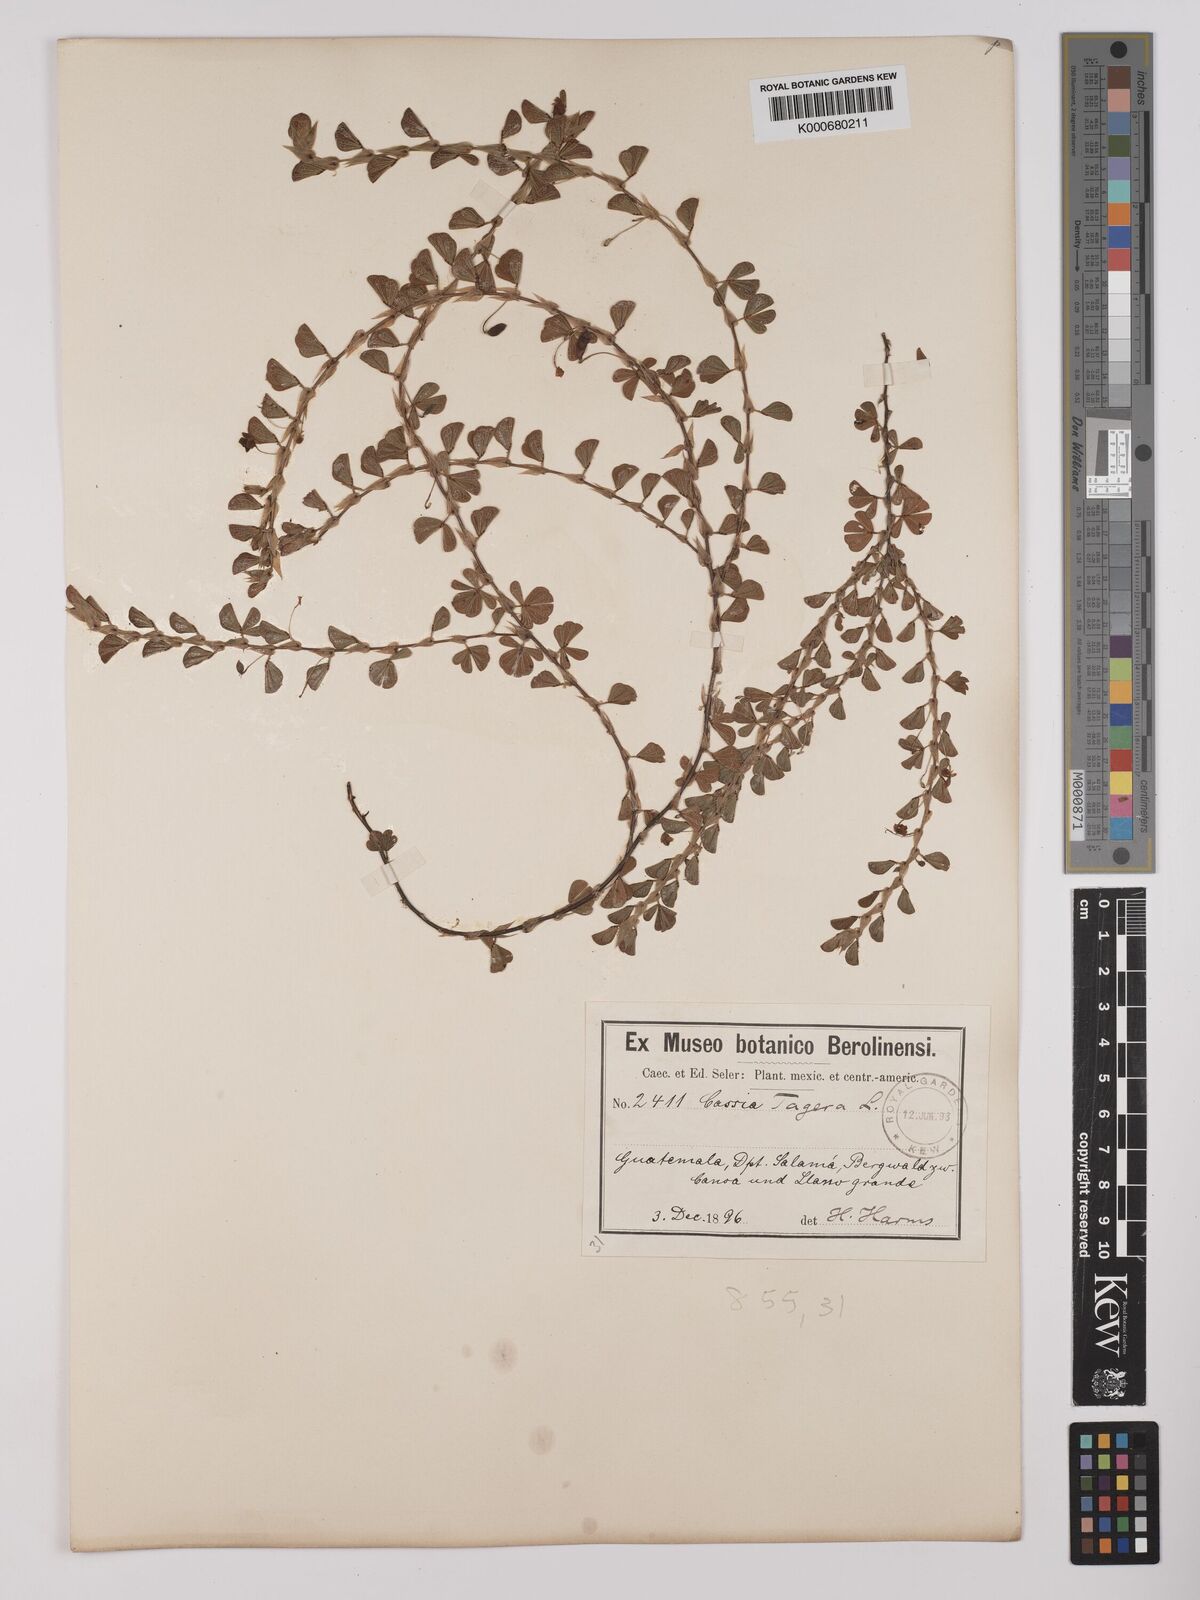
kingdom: Plantae
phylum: Tracheophyta
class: Magnoliopsida
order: Fabales
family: Fabaceae
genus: Chamaecrista
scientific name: Chamaecrista kunthiana
